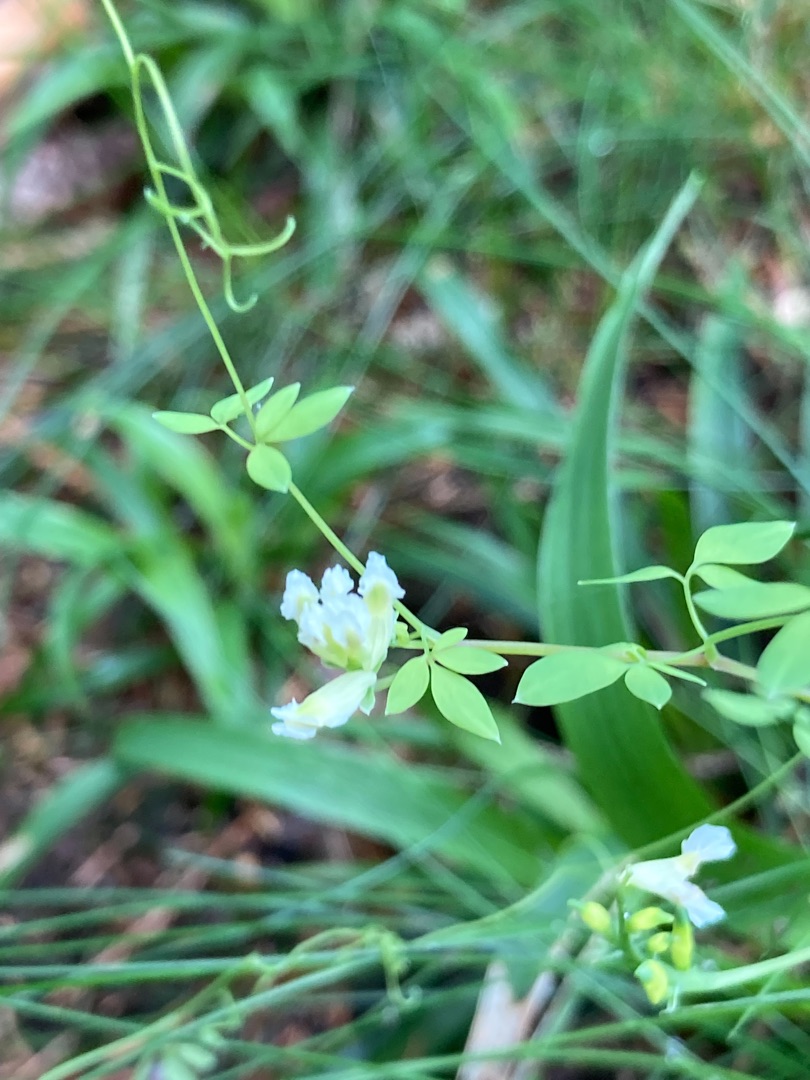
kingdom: Plantae
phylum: Tracheophyta
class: Magnoliopsida
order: Ranunculales
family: Papaveraceae
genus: Ceratocapnos
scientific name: Ceratocapnos claviculata
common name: Klatrende lærkespore
